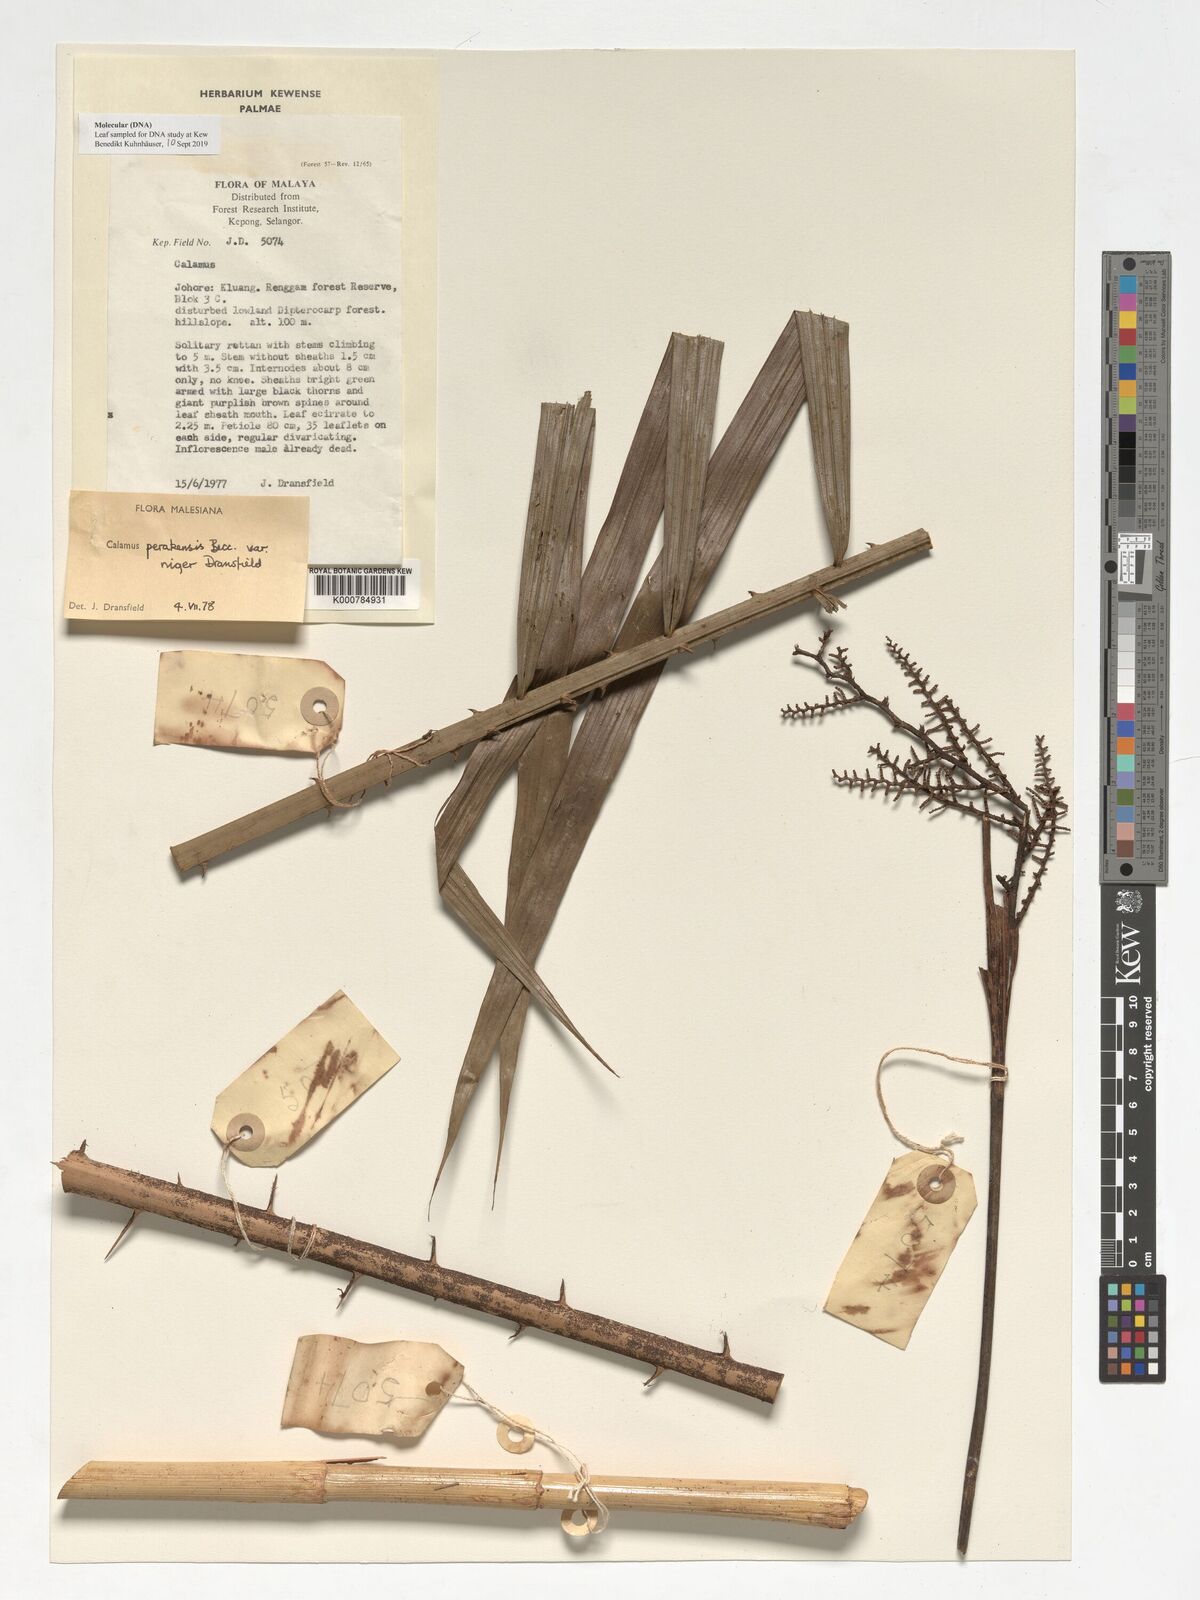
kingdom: Plantae
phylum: Tracheophyta
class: Liliopsida
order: Arecales
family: Arecaceae
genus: Calamus
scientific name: Calamus perakensis
